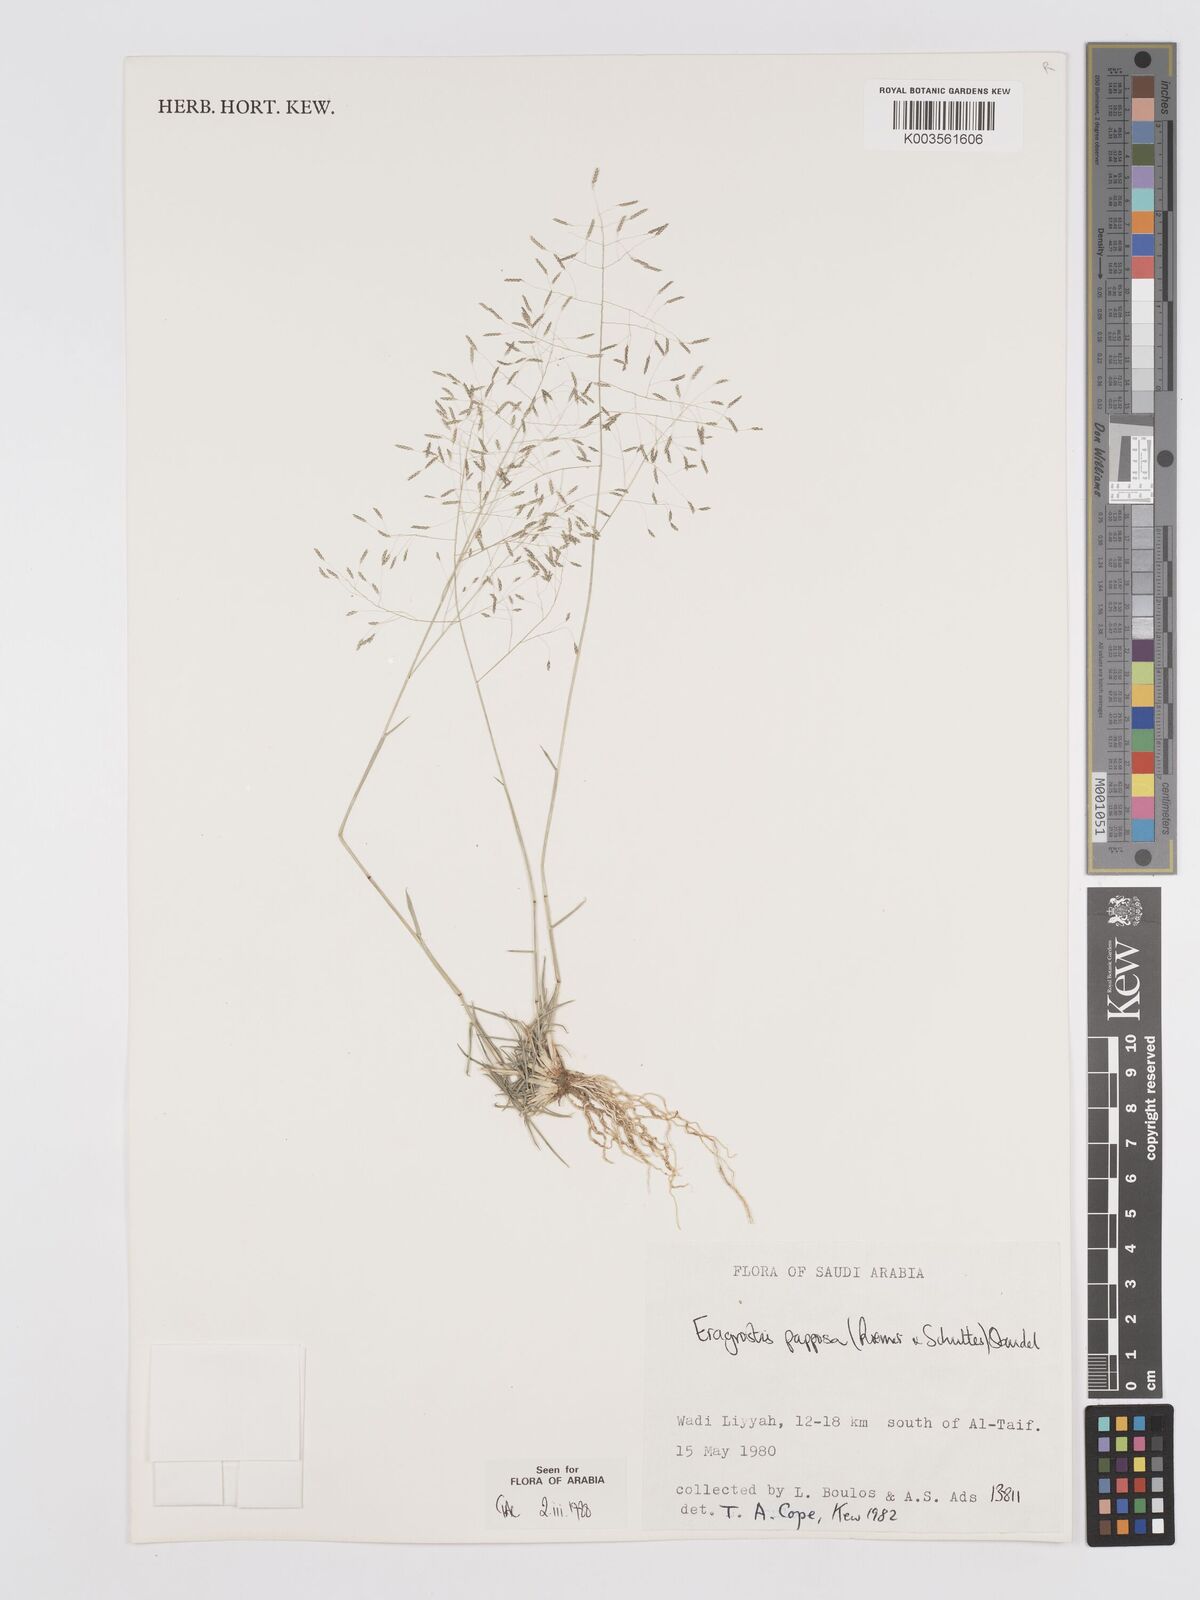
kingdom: Plantae
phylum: Tracheophyta
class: Liliopsida
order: Poales
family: Poaceae
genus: Eragrostis
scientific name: Eragrostis papposa
